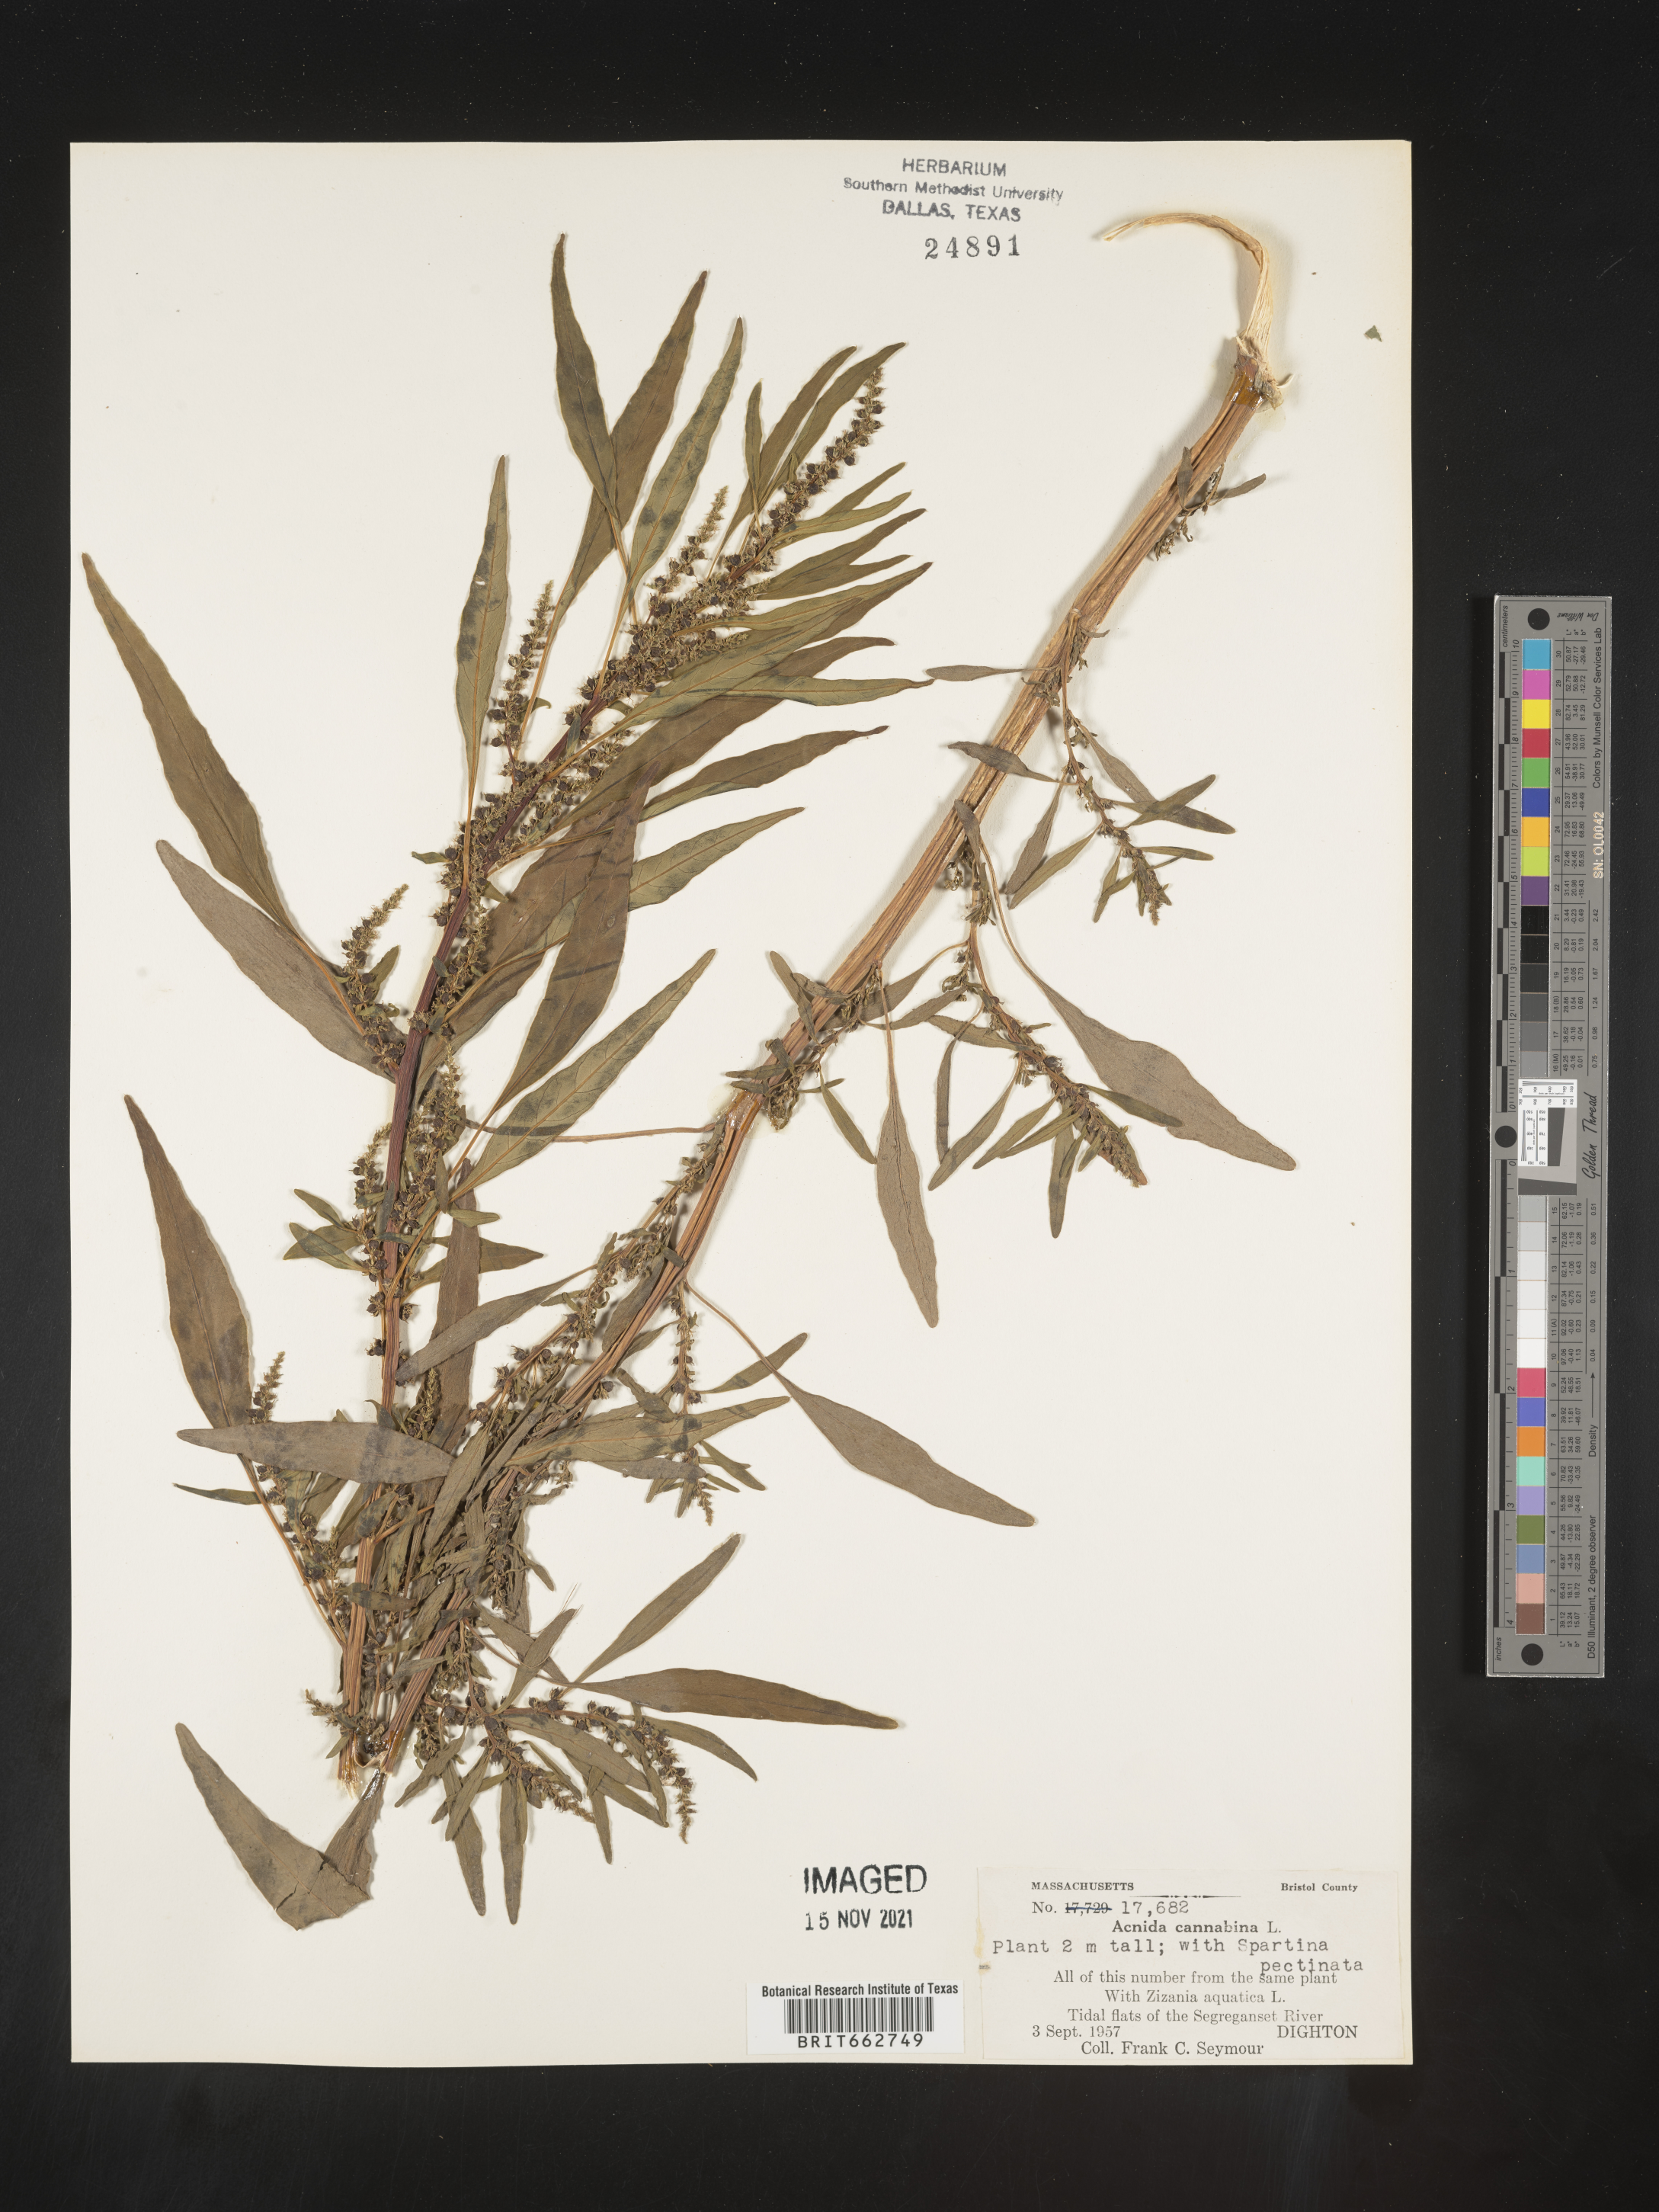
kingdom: Plantae
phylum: Tracheophyta
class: Magnoliopsida
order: Caryophyllales
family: Amaranthaceae
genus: Amaranthus
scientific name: Amaranthus powellii
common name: Powell's amaranth
